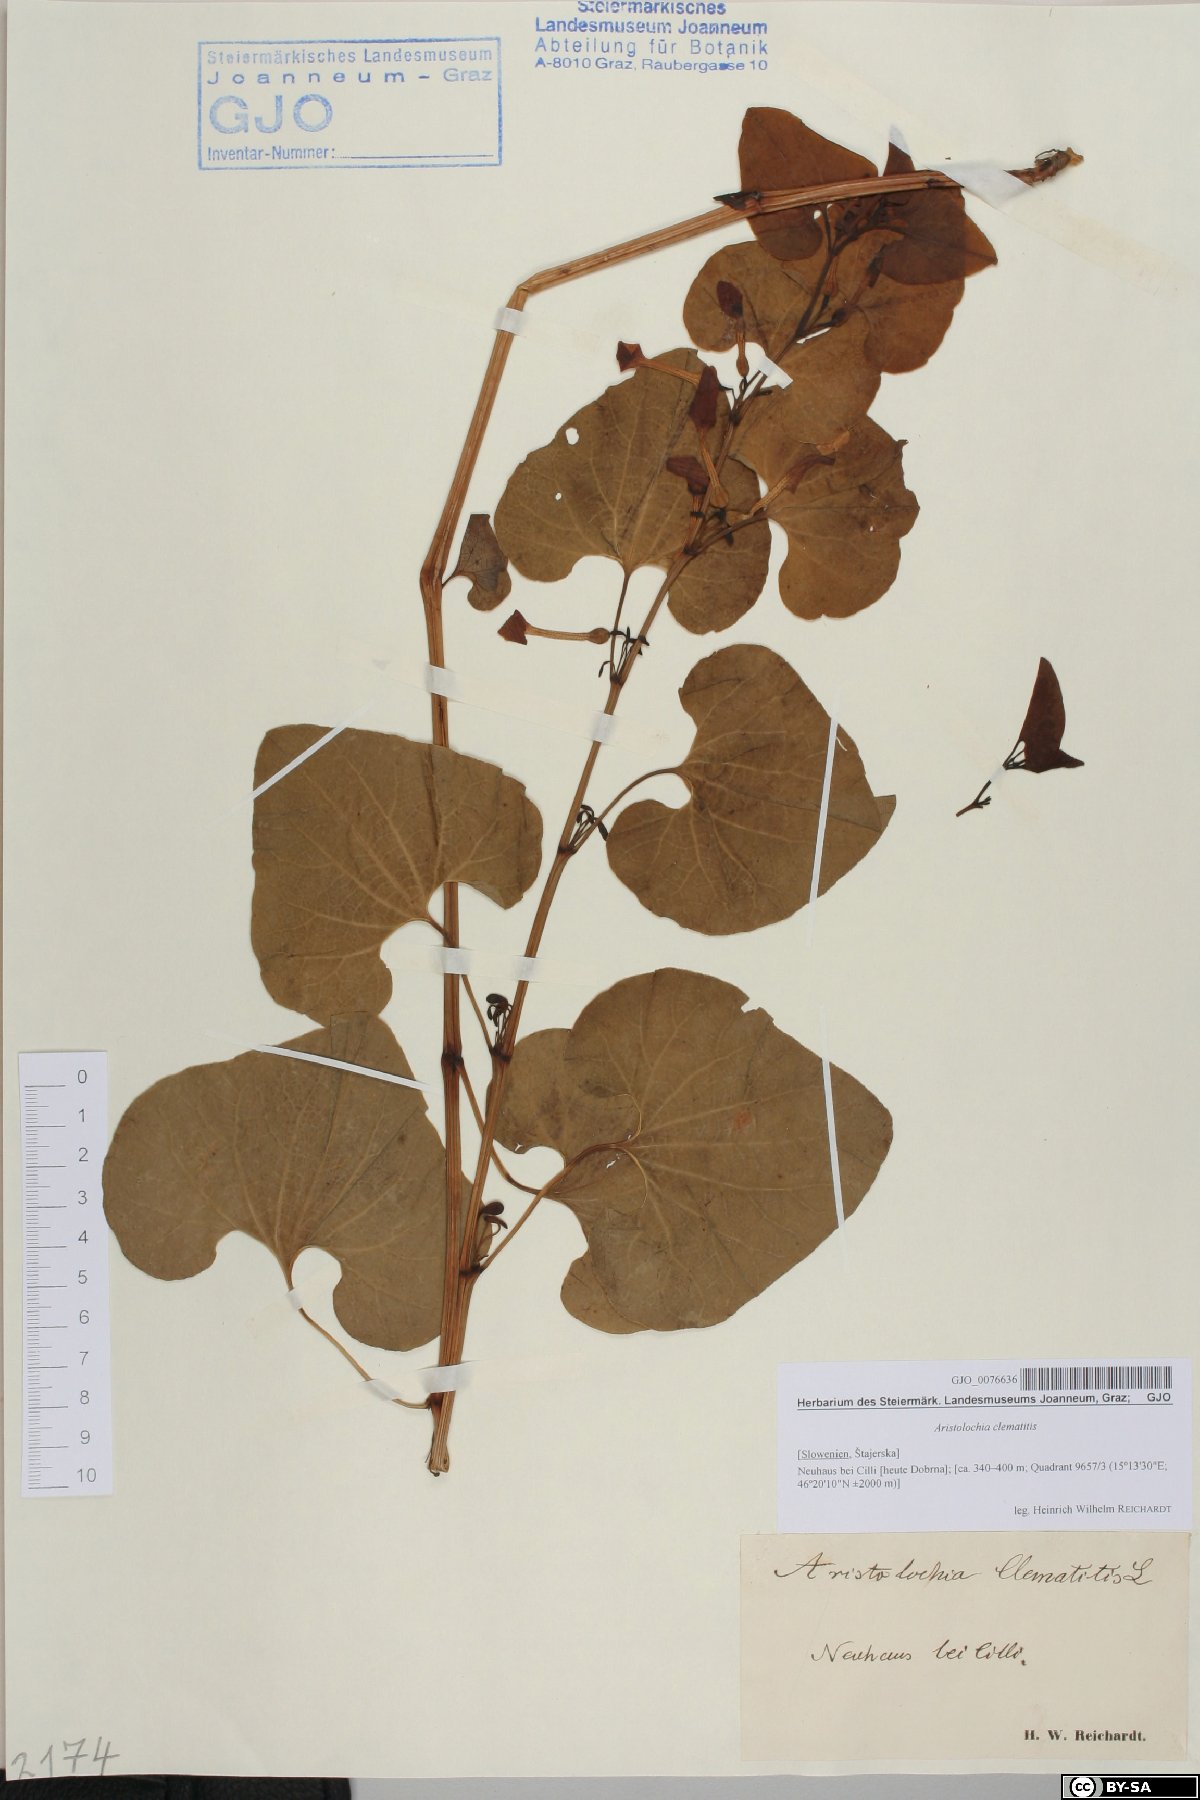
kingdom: Plantae
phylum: Tracheophyta
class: Magnoliopsida
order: Piperales
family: Aristolochiaceae
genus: Aristolochia
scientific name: Aristolochia clematitis
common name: Birthwort
